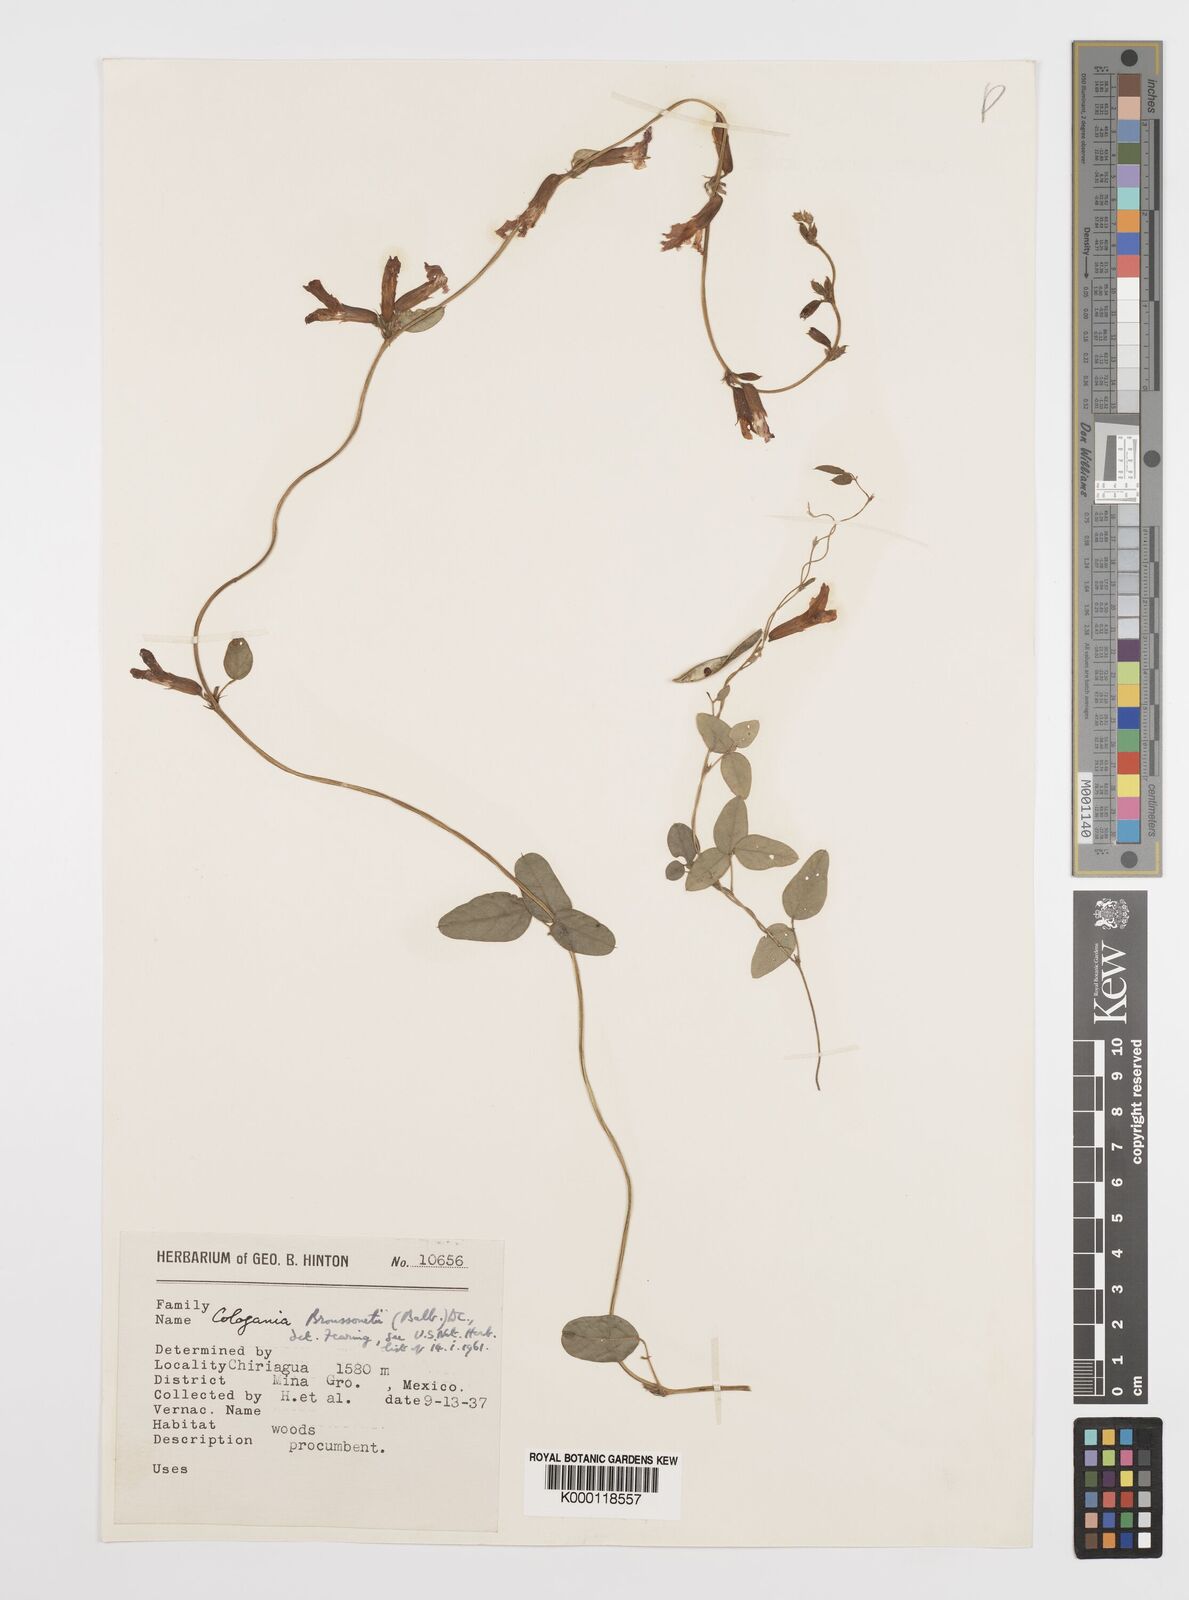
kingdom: Plantae
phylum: Tracheophyta
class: Magnoliopsida
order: Fabales
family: Fabaceae
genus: Cologania
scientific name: Cologania broussonetii
